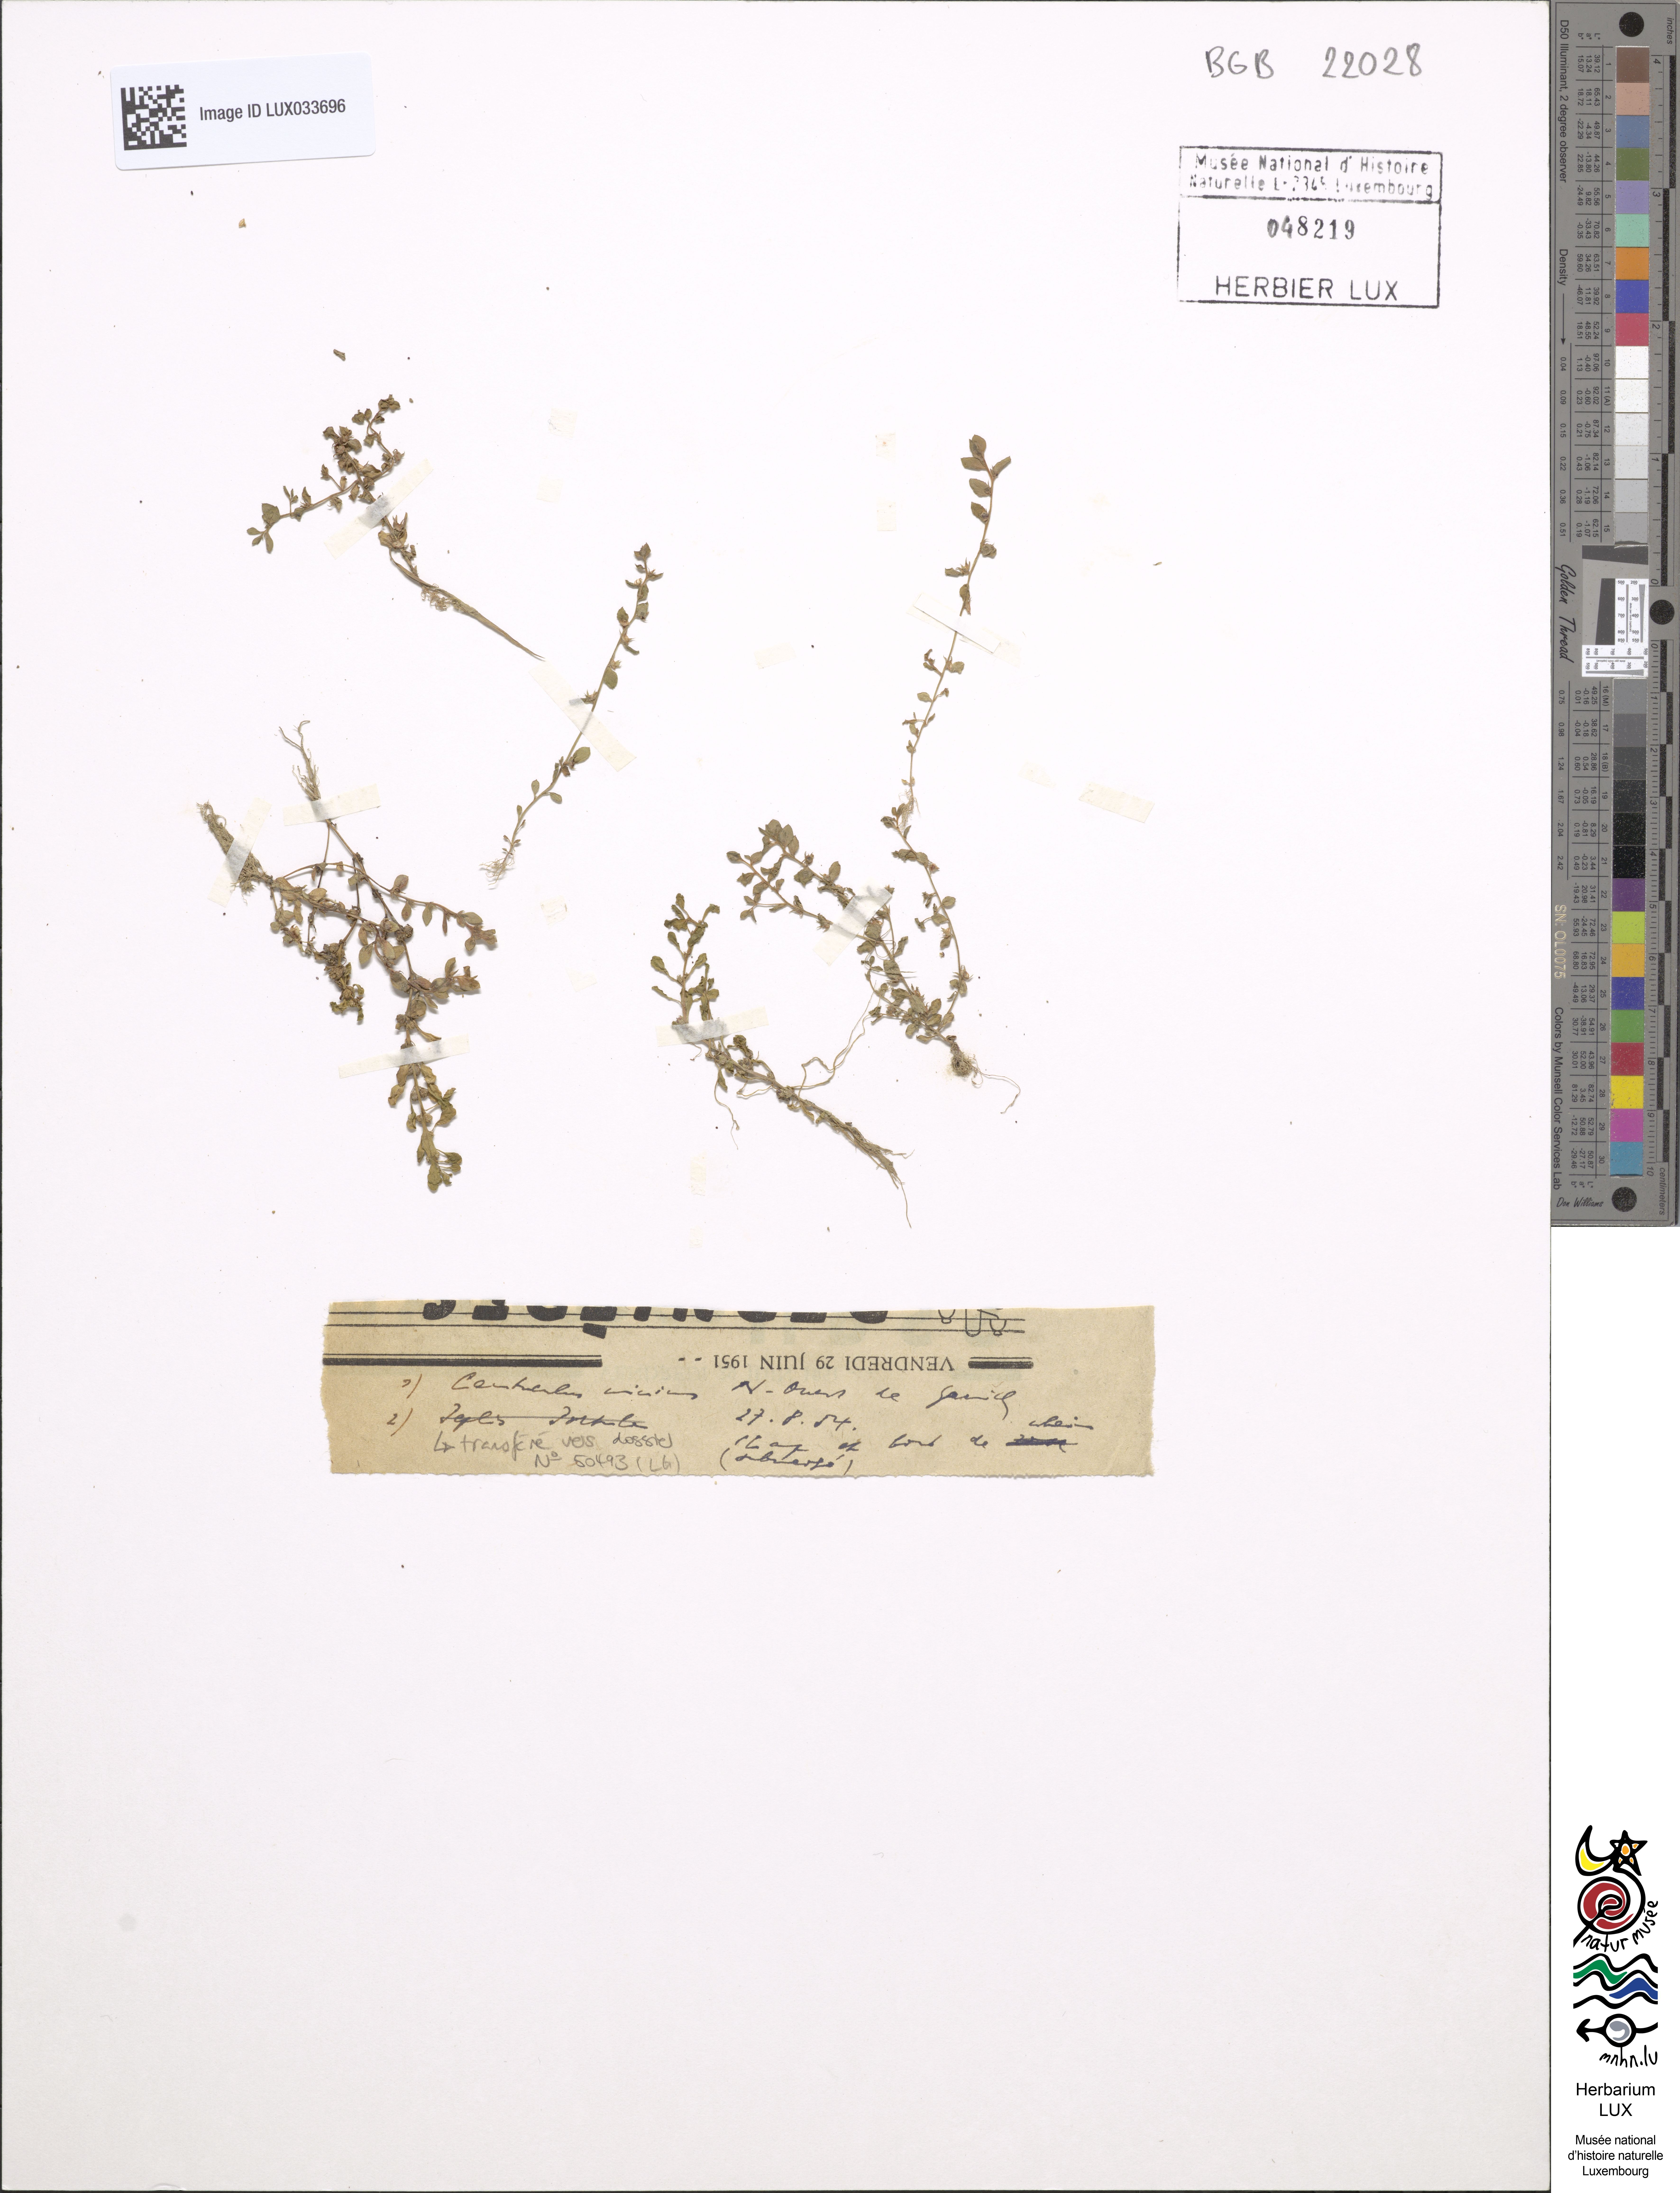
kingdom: Plantae
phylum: Tracheophyta
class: Magnoliopsida
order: Ericales
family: Primulaceae
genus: Lysimachia
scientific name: Lysimachia minima
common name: Chaffweed
